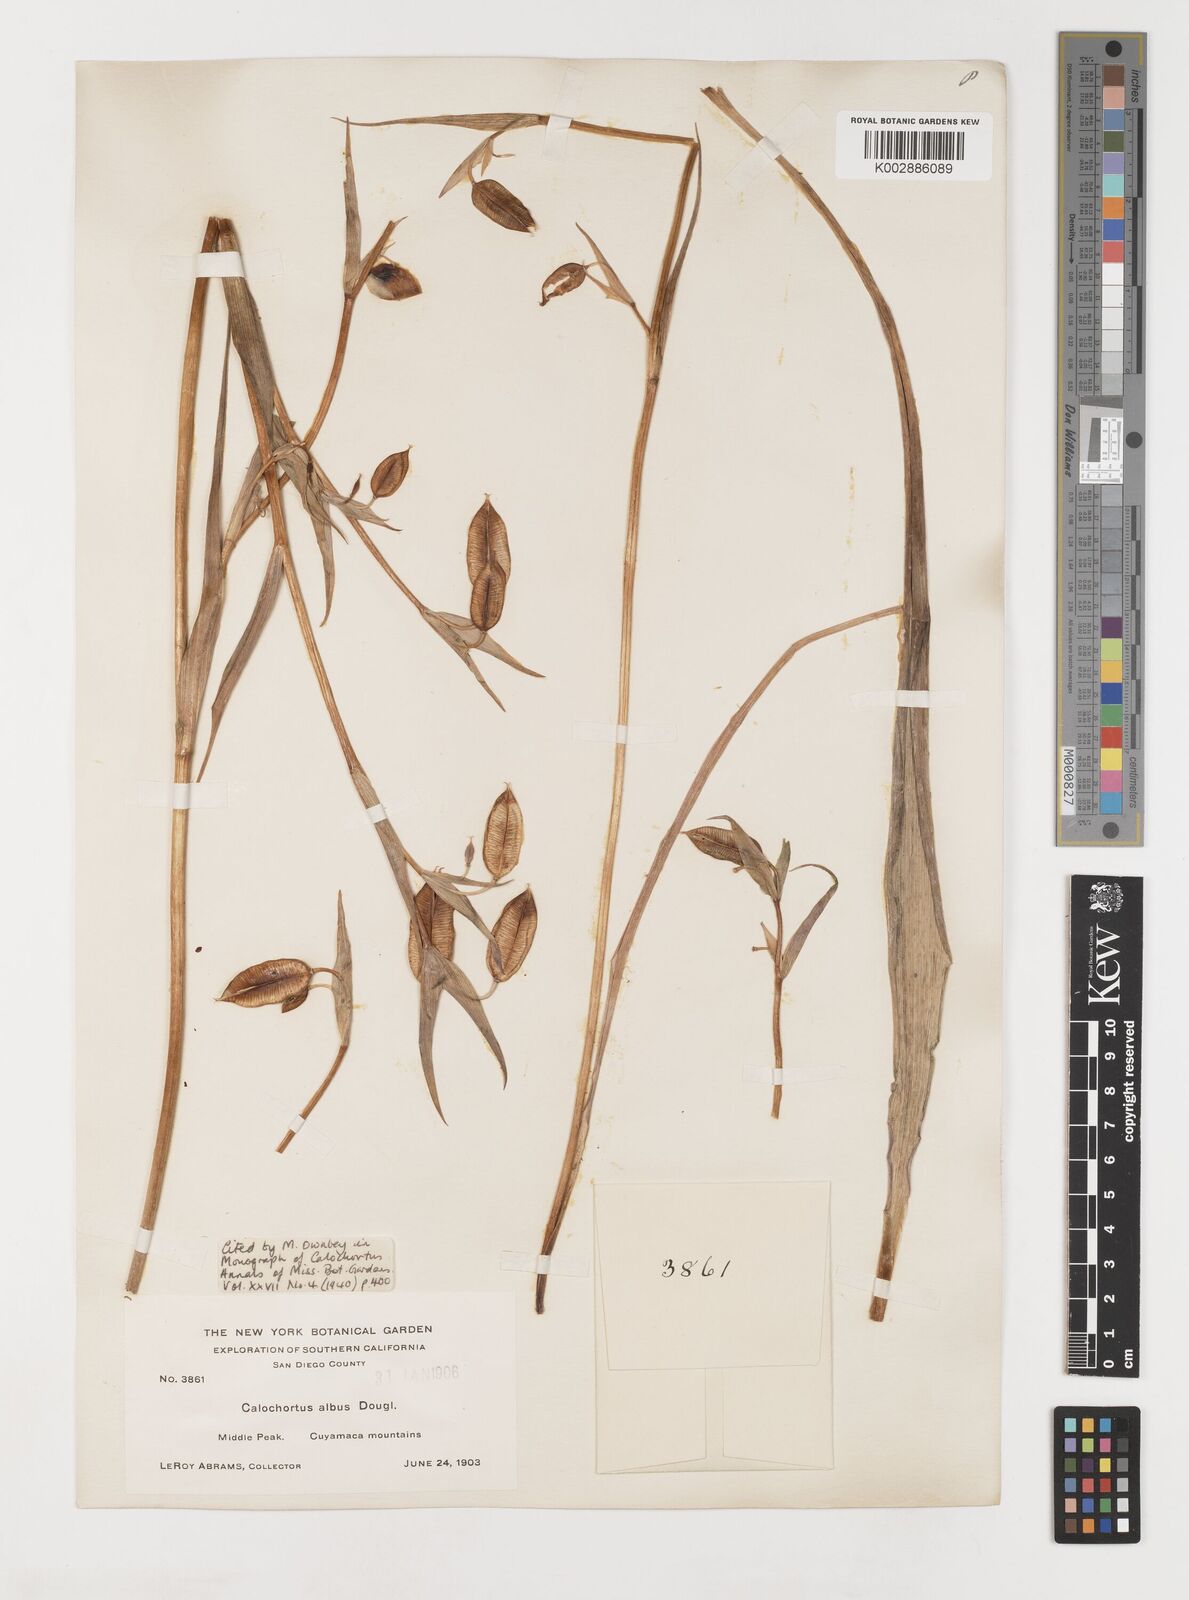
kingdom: Plantae
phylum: Tracheophyta
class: Liliopsida
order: Liliales
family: Liliaceae
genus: Calochortus
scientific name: Calochortus albus
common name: Fairy-lantern
